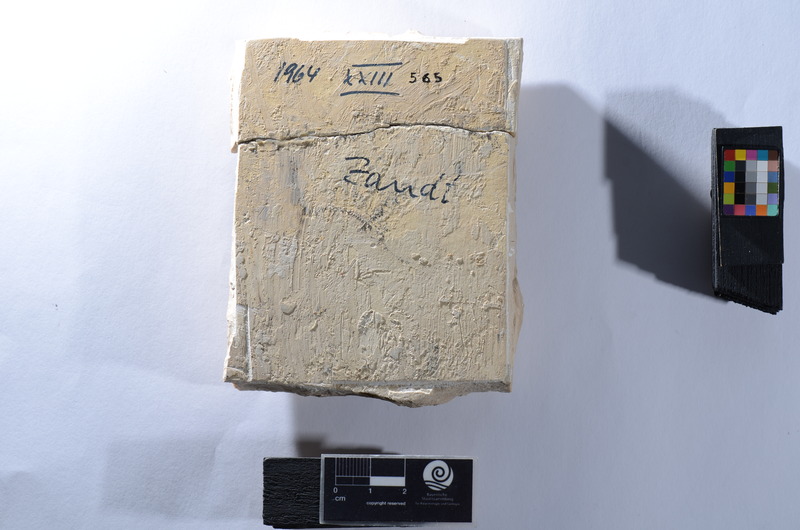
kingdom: Animalia
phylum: Chordata
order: Amiiformes
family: Caturidae
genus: Caturus
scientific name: Caturus
